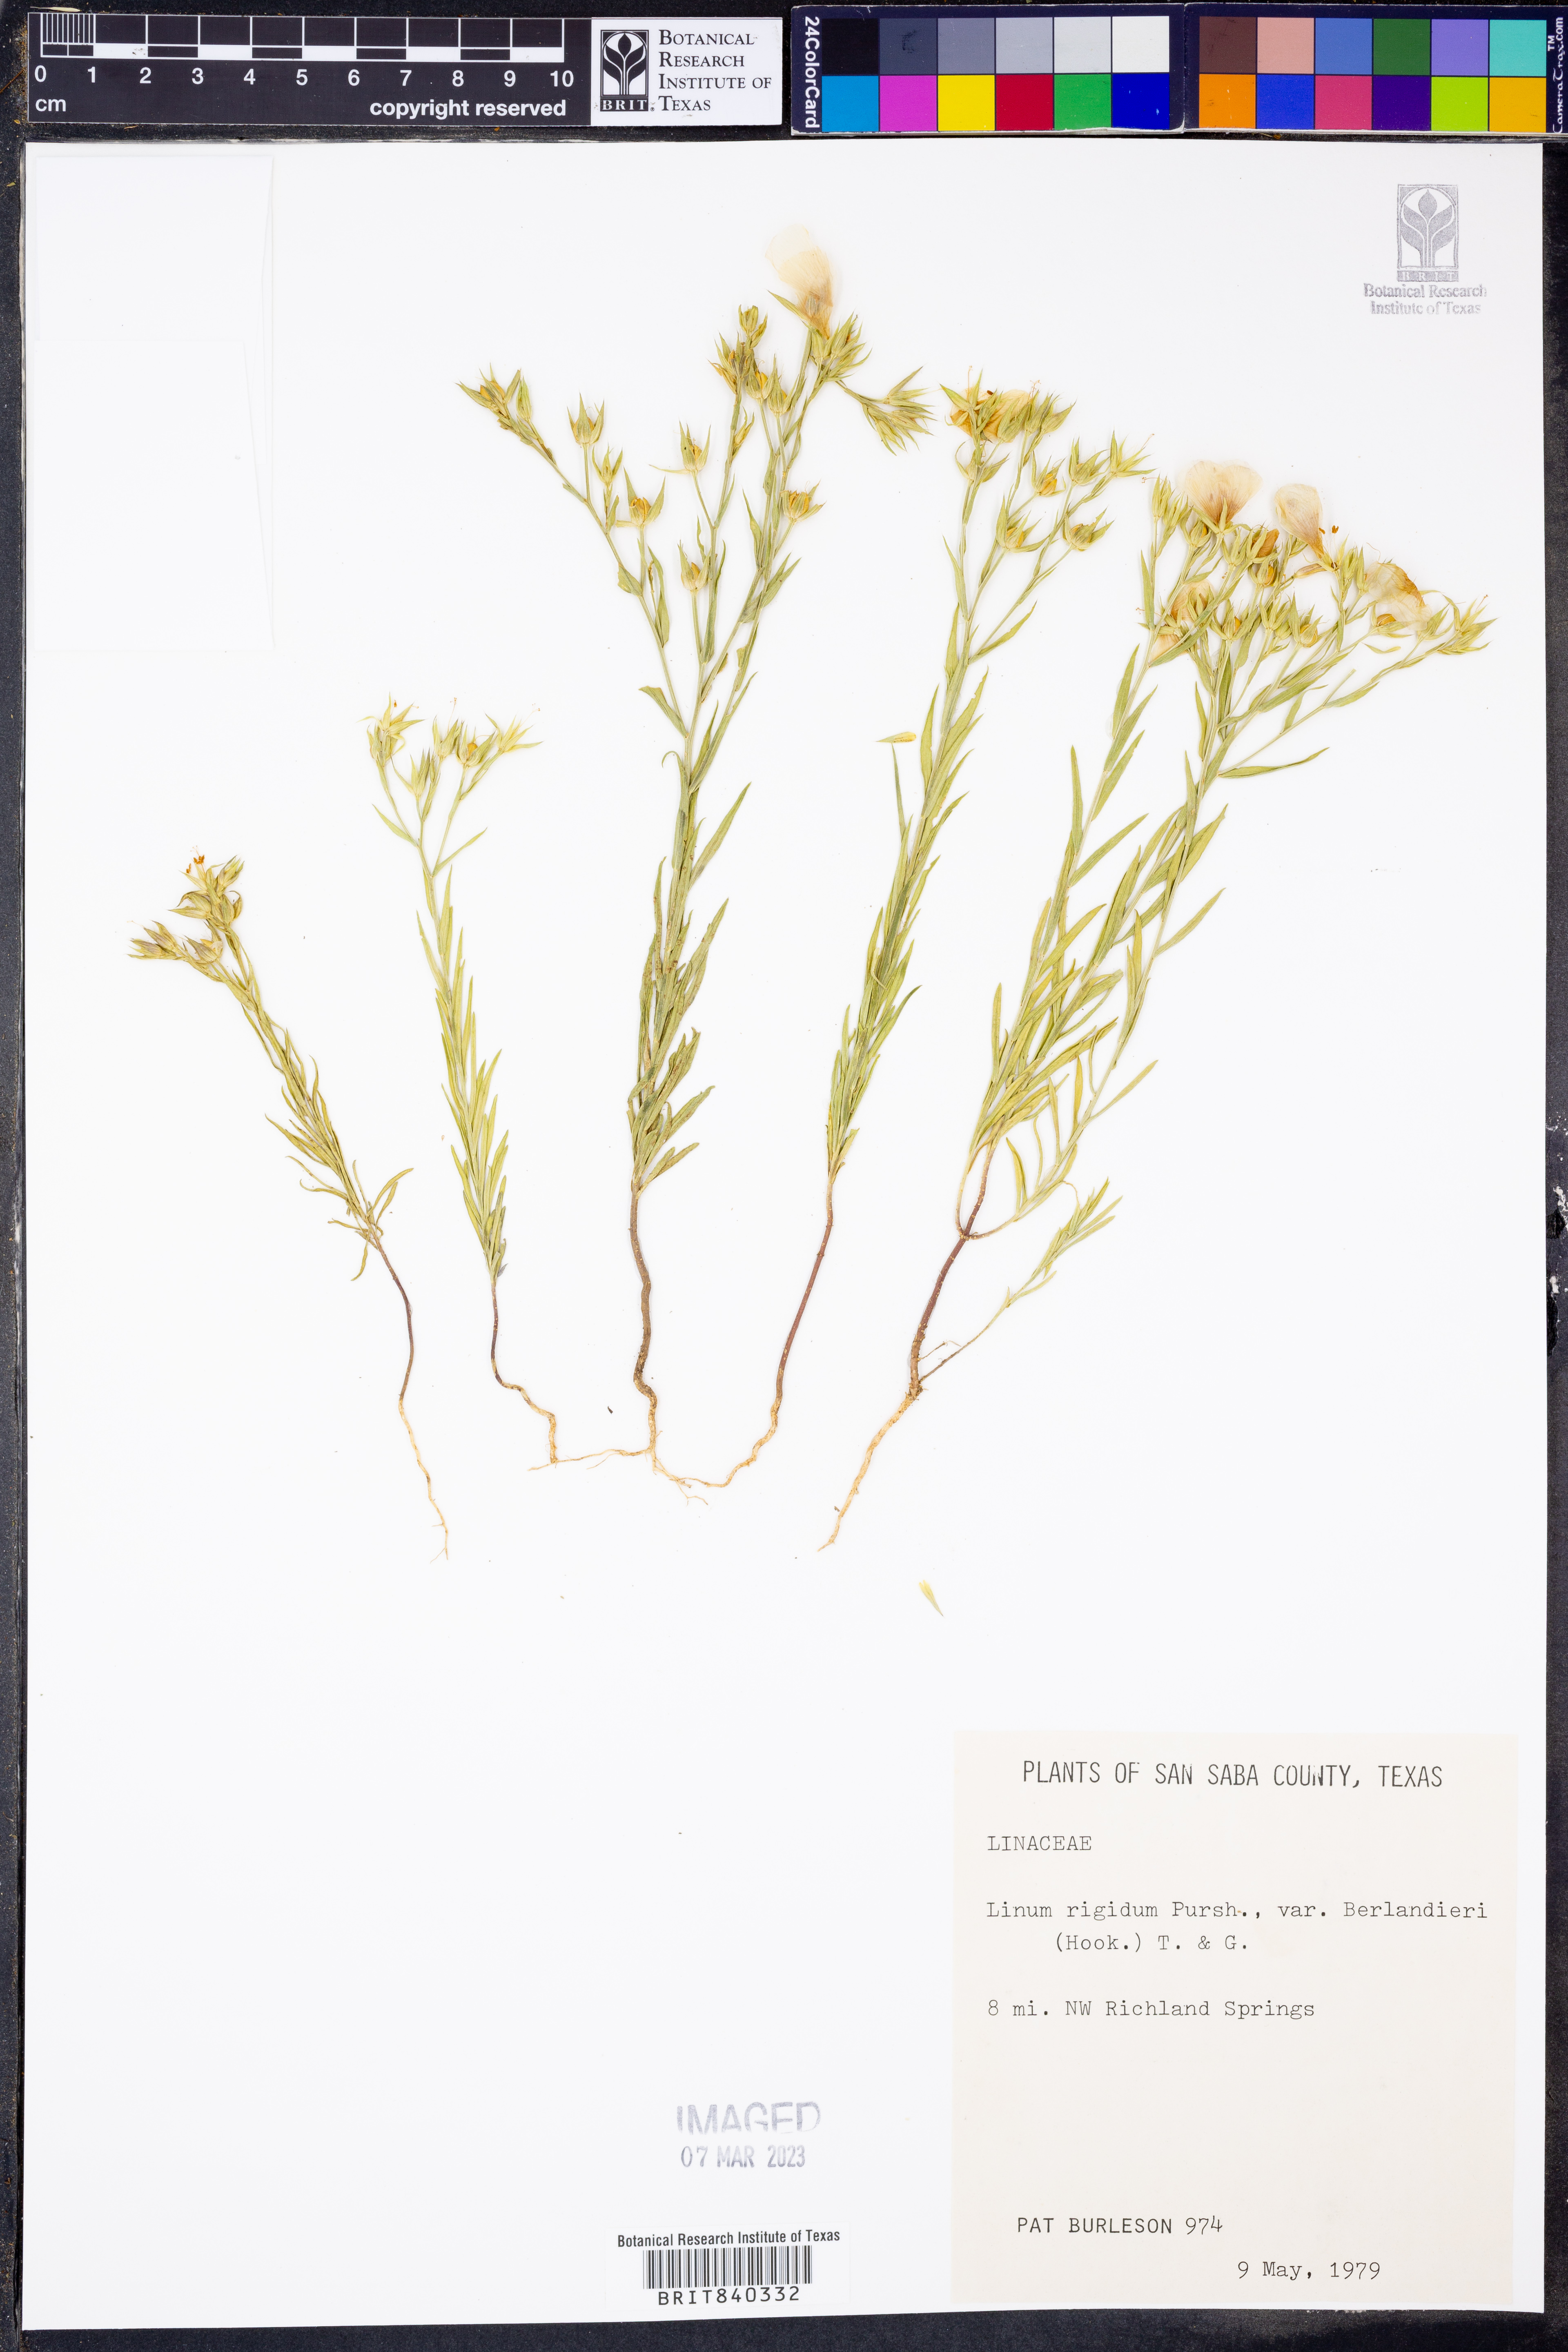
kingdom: Plantae
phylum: Tracheophyta
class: Magnoliopsida
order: Malpighiales
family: Linaceae
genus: Linum
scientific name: Linum berlandieri
